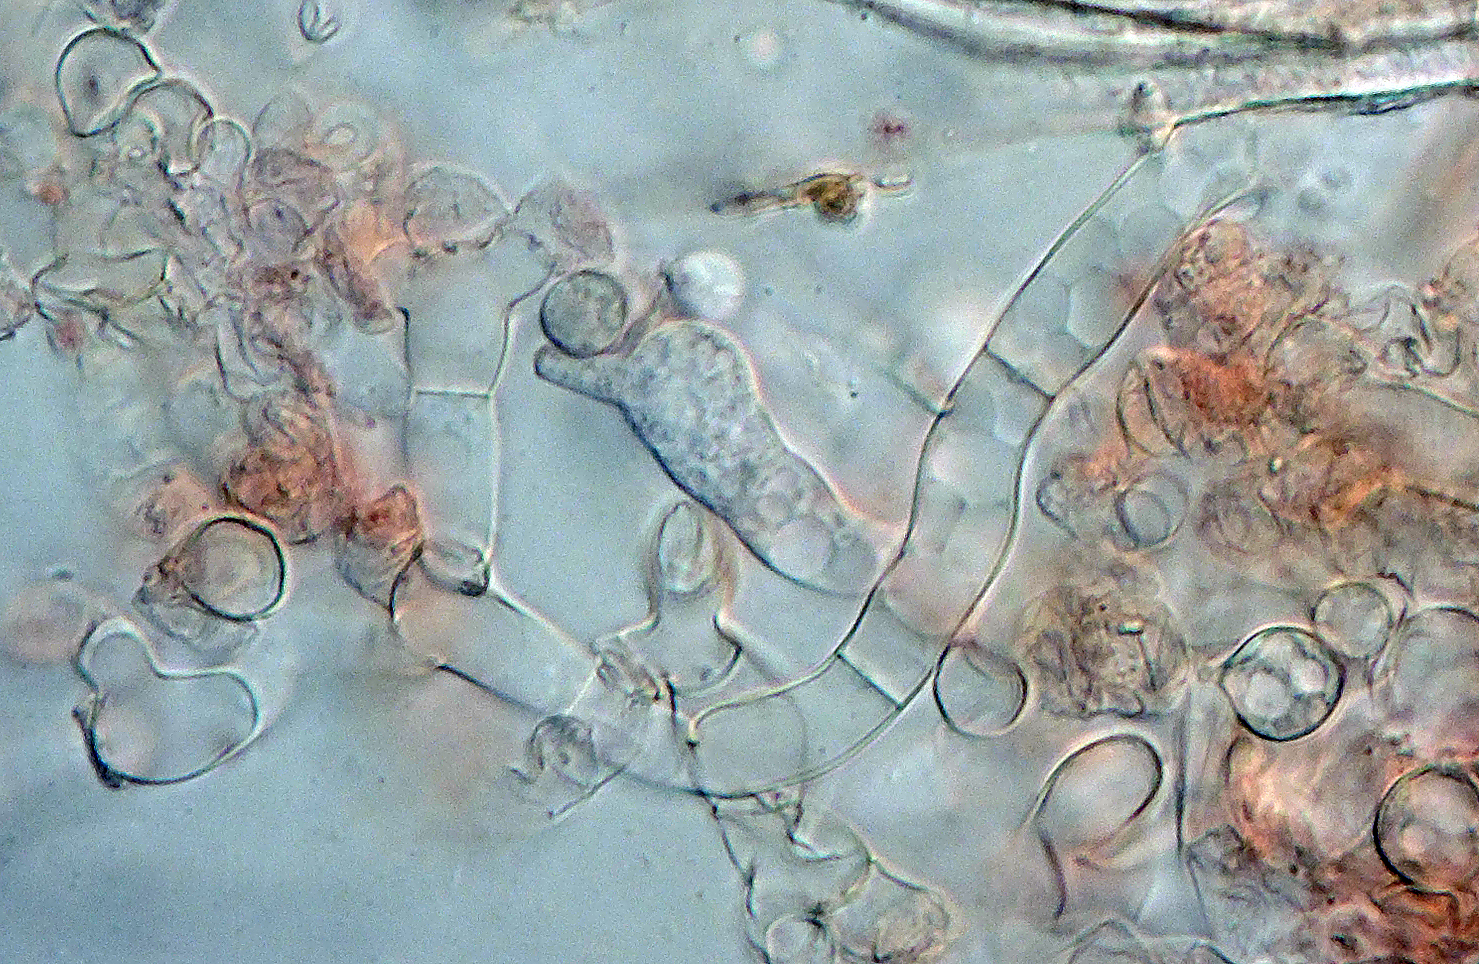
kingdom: Fungi
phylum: Basidiomycota
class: Agaricomycetes
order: Cantharellales
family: Ceratobasidiaceae
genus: Rhizoctonia
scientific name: Rhizoctonia fusispora
